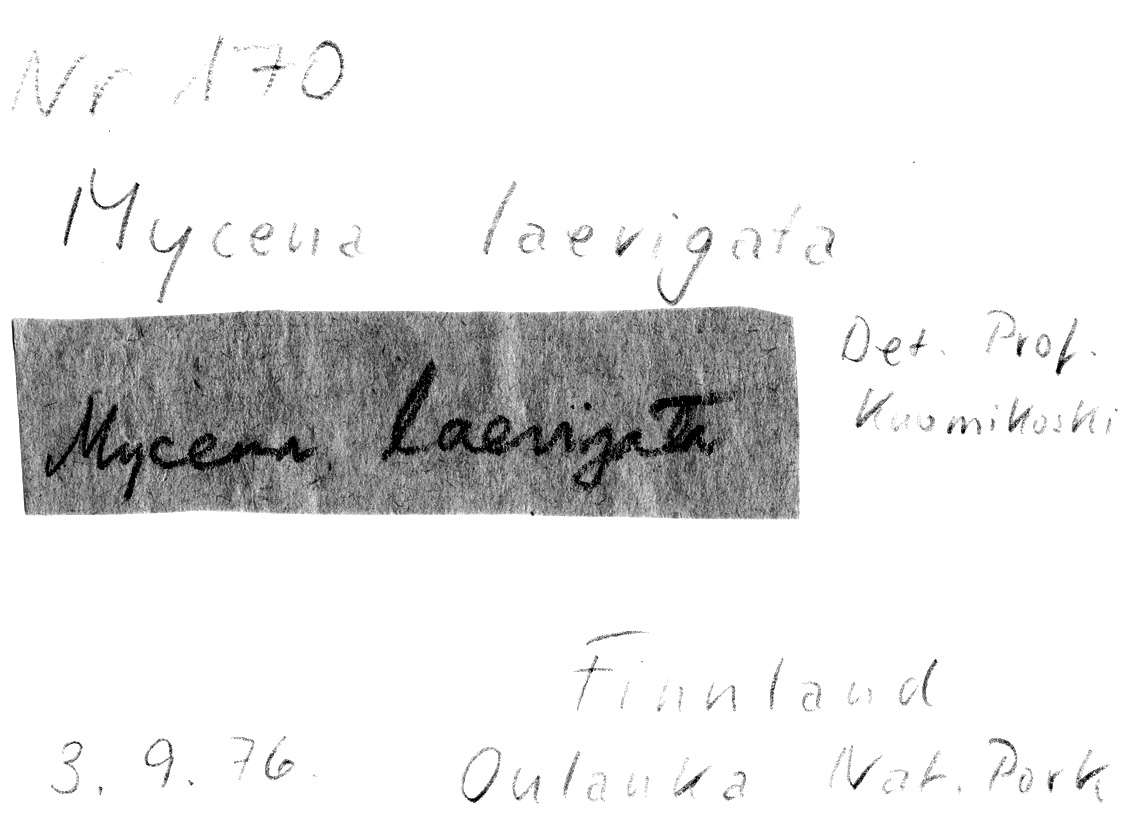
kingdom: Fungi
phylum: Basidiomycota
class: Agaricomycetes
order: Agaricales
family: Mycenaceae
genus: Mycena
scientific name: Mycena laevigata
